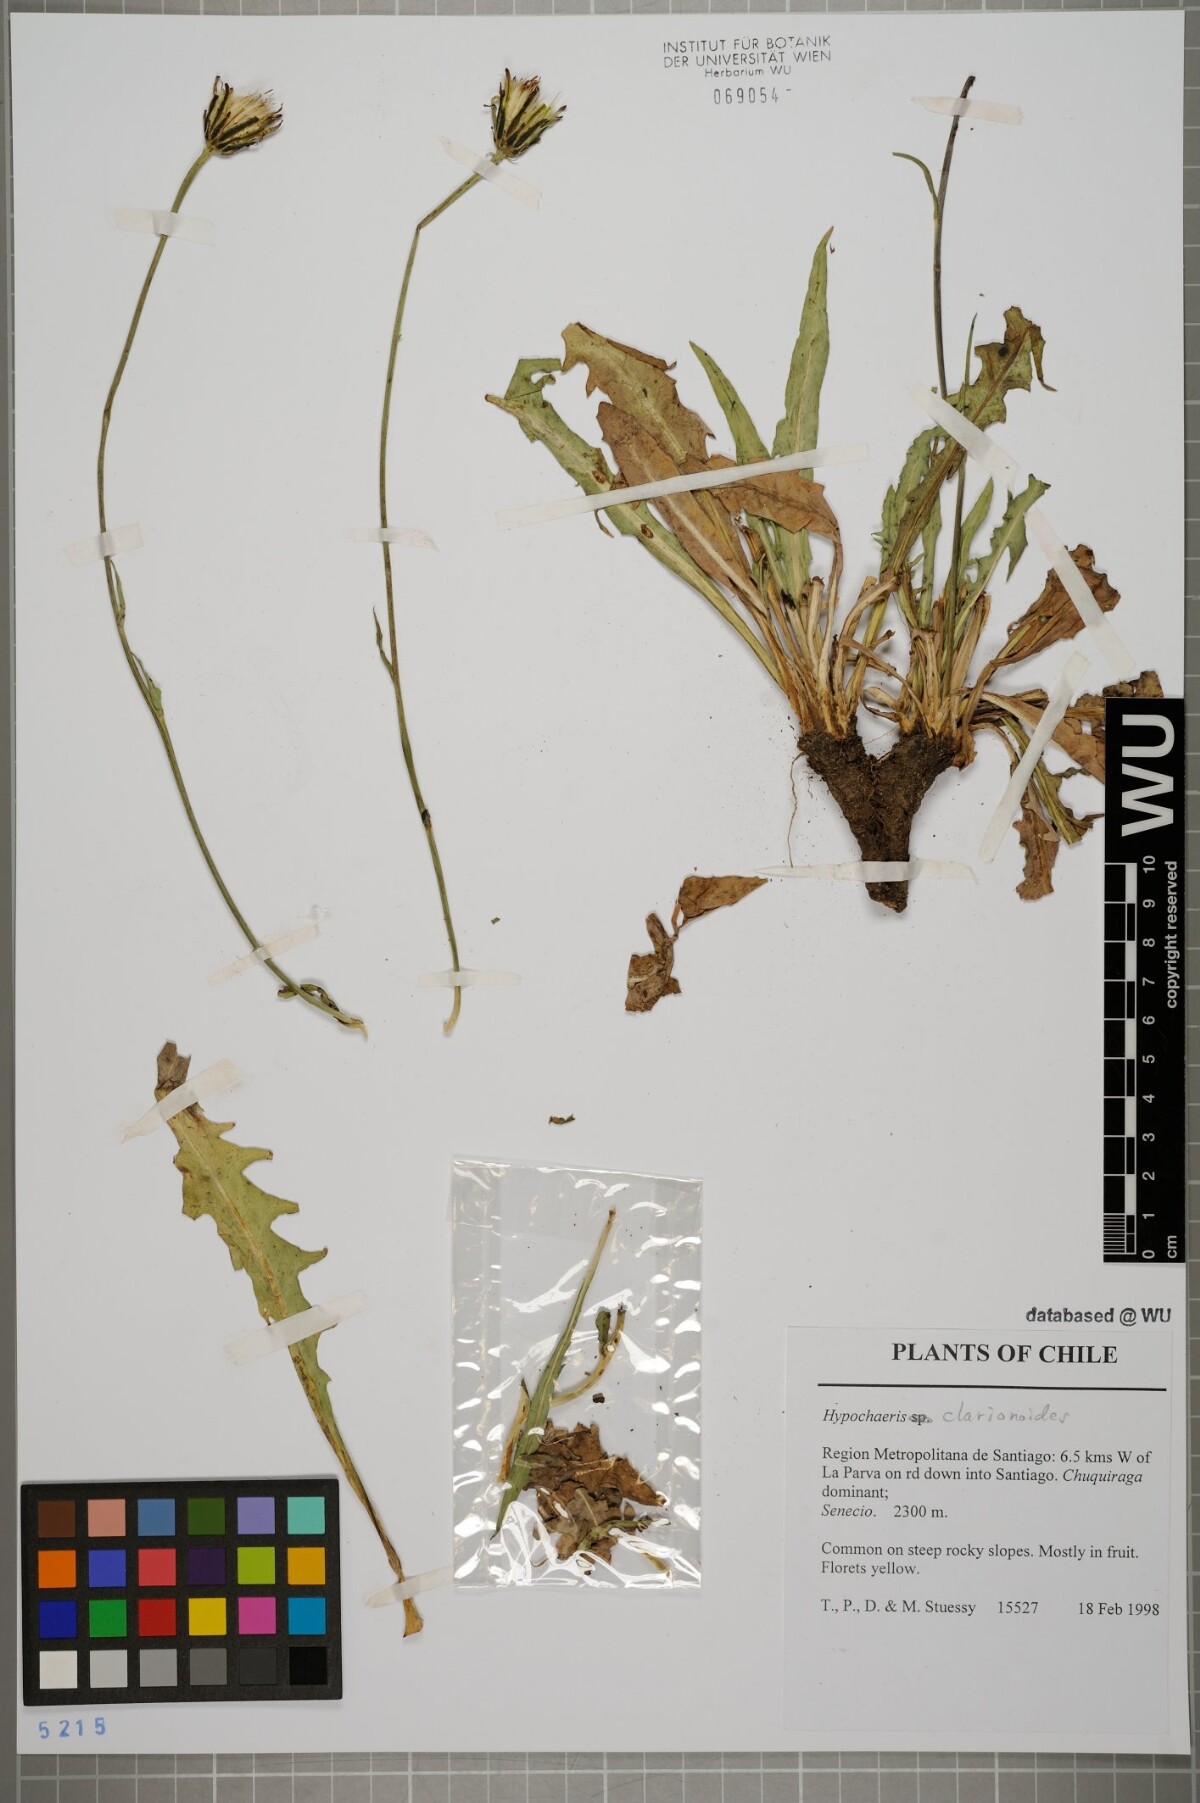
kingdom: Plantae
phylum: Tracheophyta
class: Magnoliopsida
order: Asterales
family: Asteraceae
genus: Hypochaeris
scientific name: Hypochaeris clarionoides
